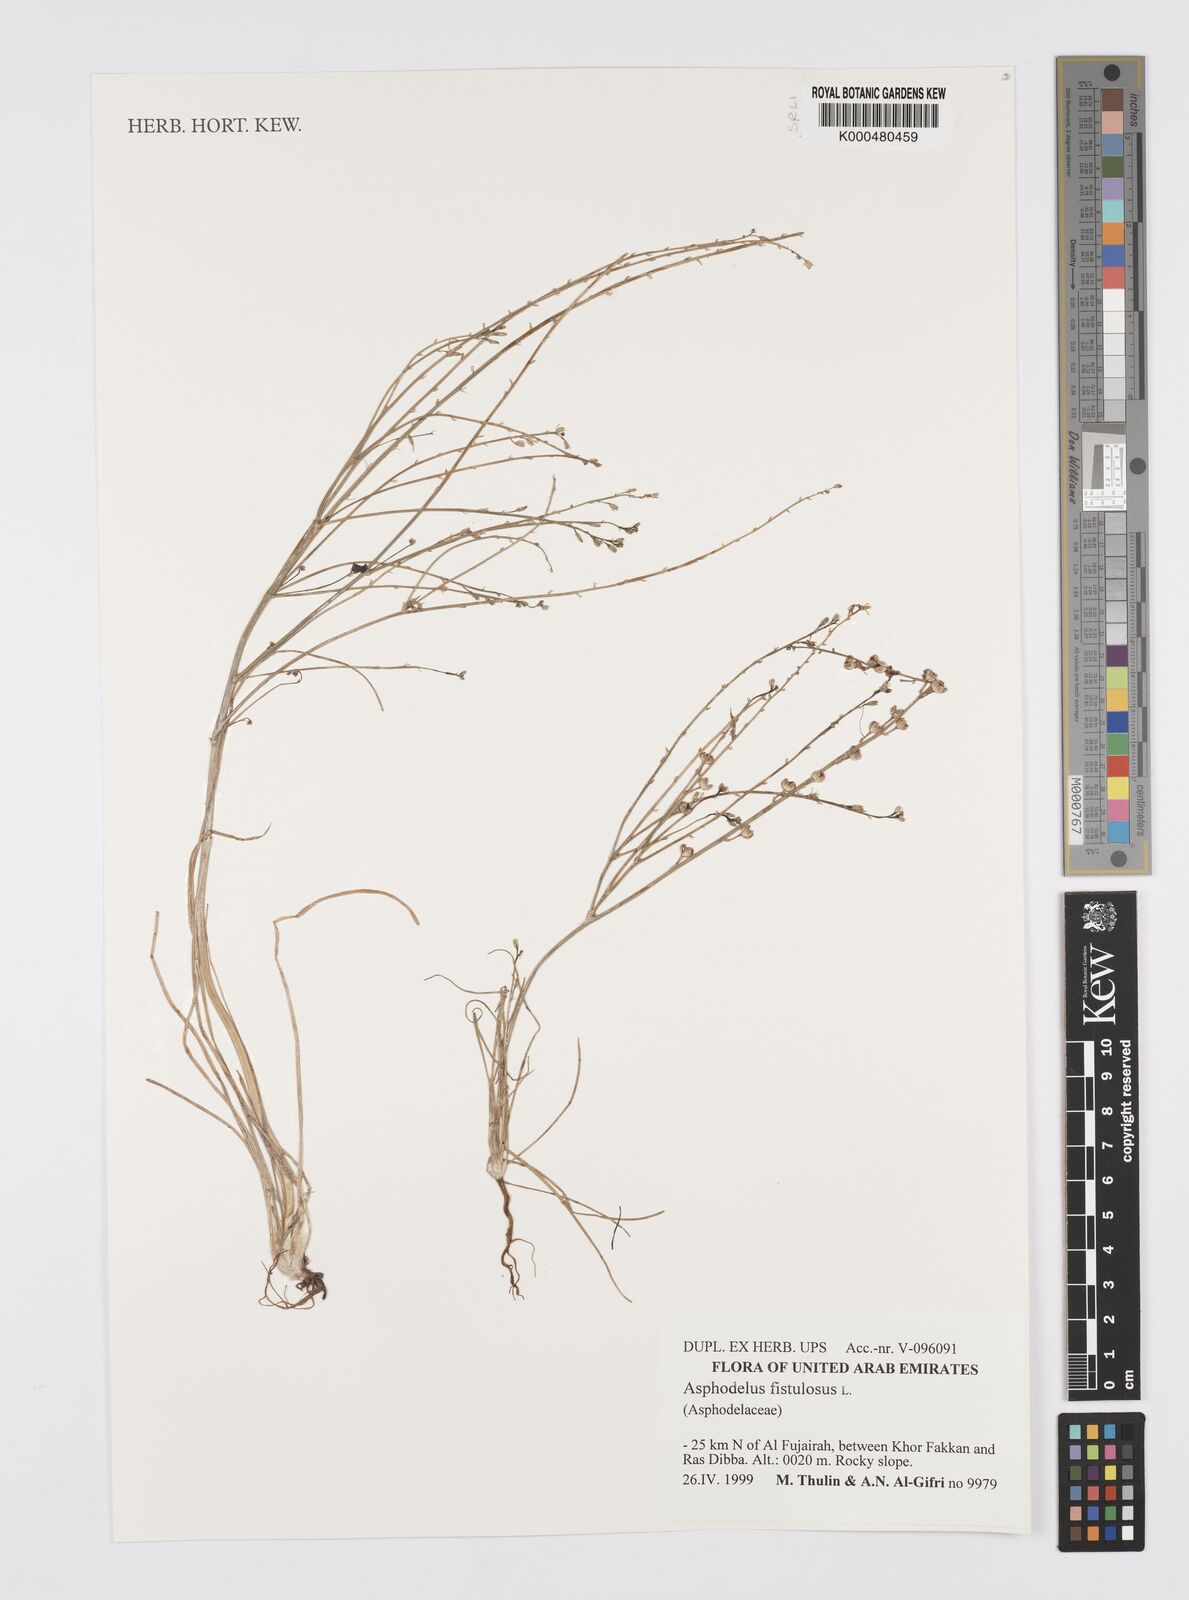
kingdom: Plantae
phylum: Tracheophyta
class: Liliopsida
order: Asparagales
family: Asphodelaceae
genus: Asphodelus
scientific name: Asphodelus fistulosus
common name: Onionweed
